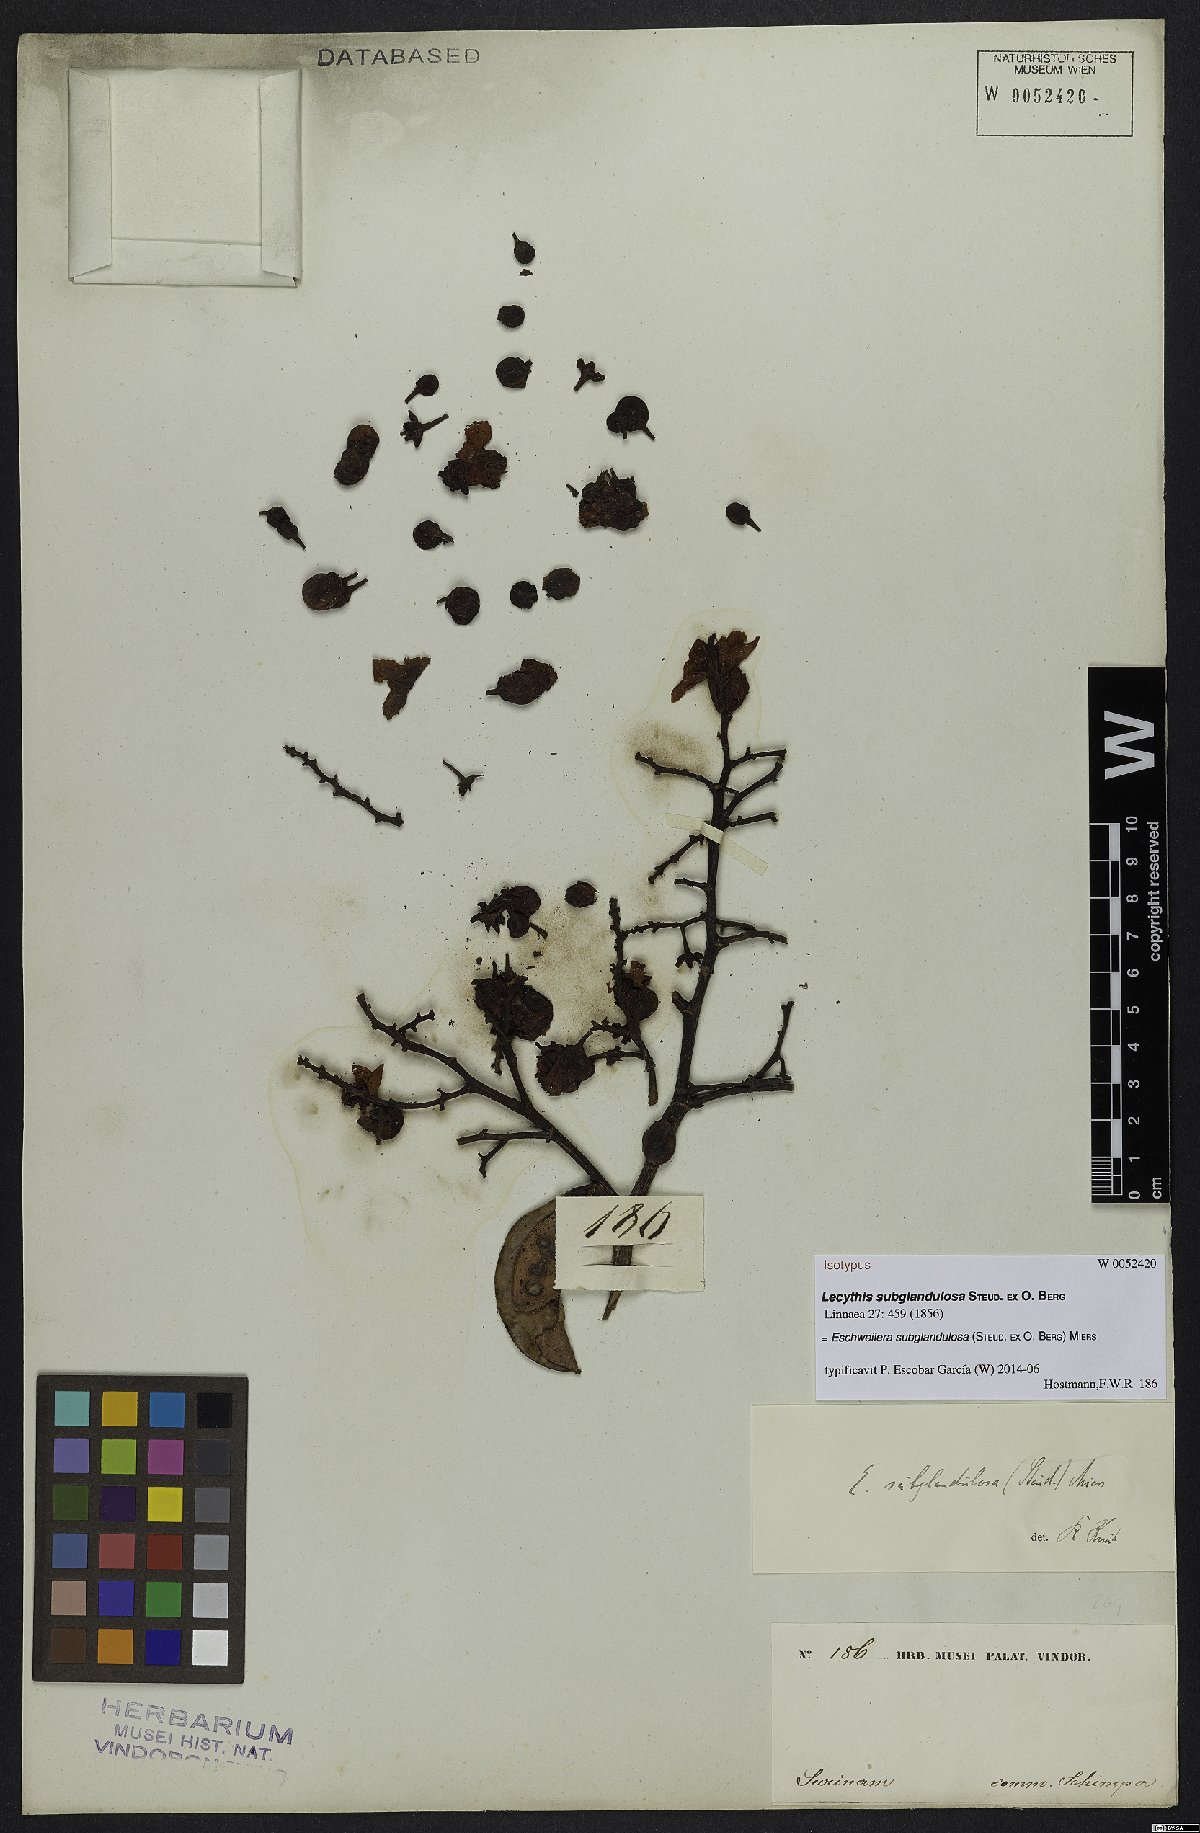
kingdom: Plantae
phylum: Tracheophyta
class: Magnoliopsida
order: Ericales
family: Lecythidaceae
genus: Eschweilera
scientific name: Eschweilera subglandulosa
